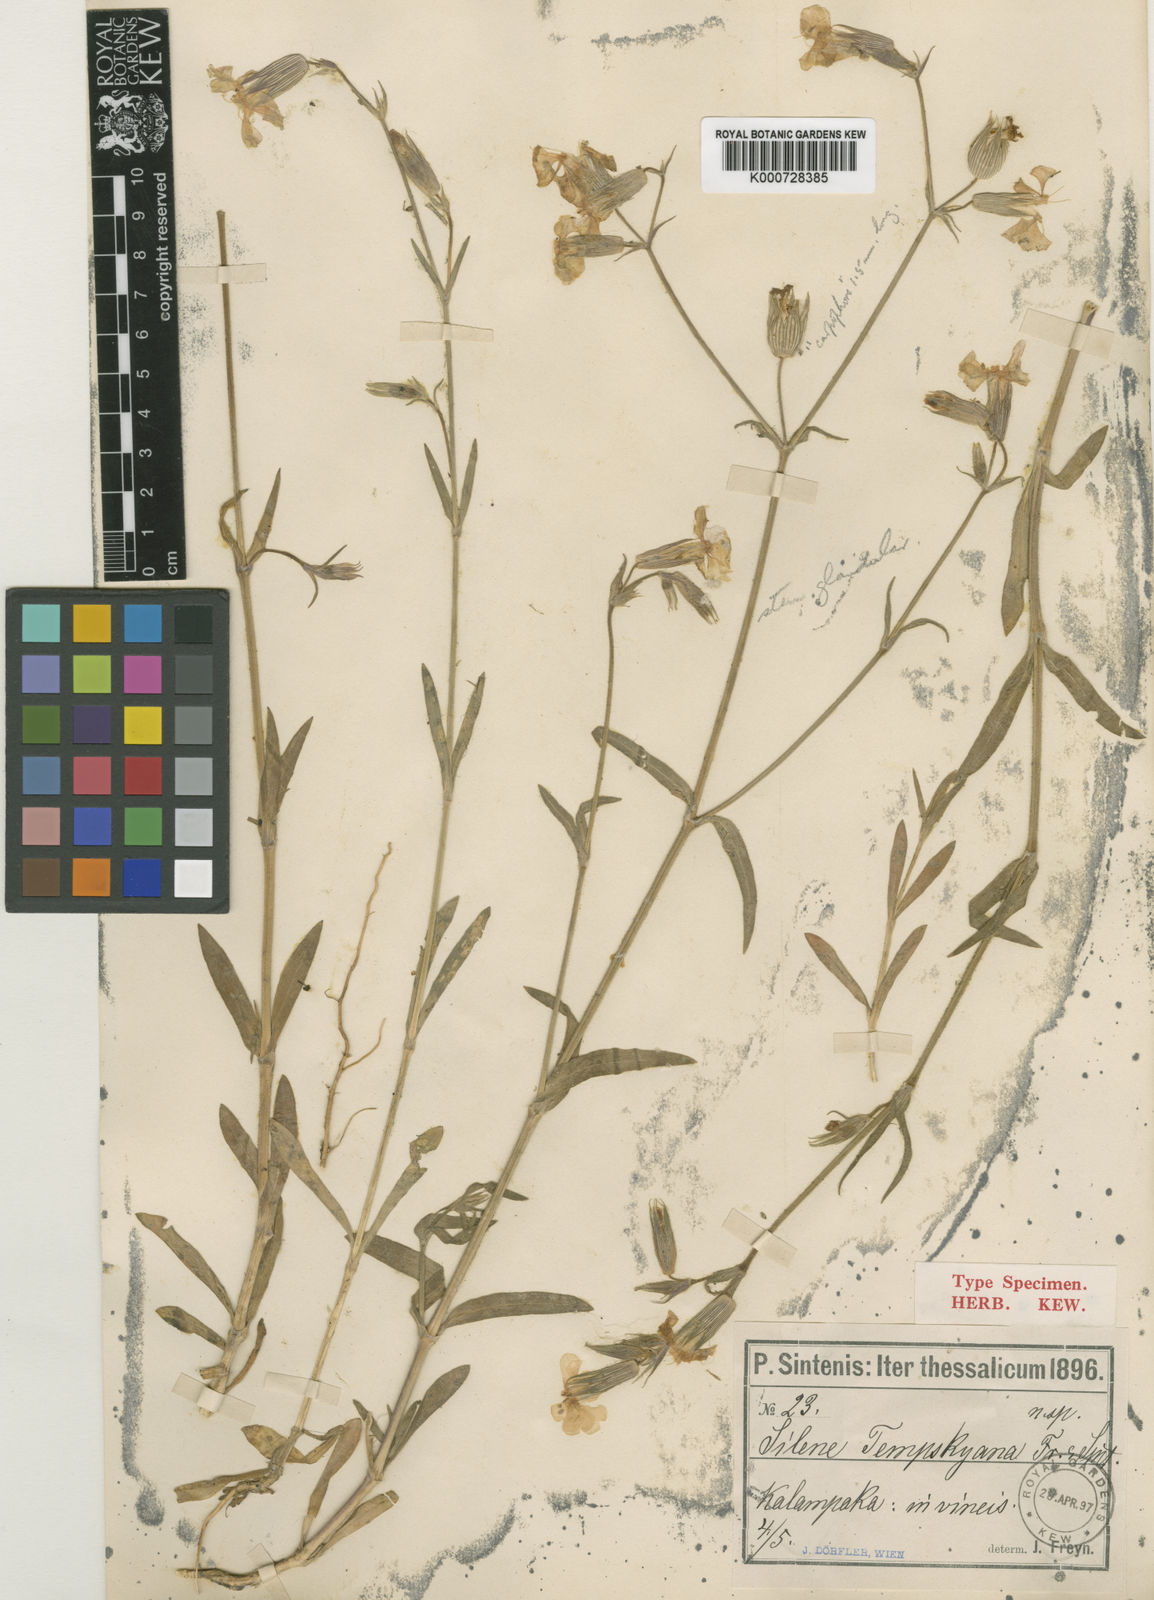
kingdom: Plantae
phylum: Tracheophyta
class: Magnoliopsida
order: Caryophyllales
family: Caryophyllaceae
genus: Silene
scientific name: Silene conica
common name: Sand catchfly
